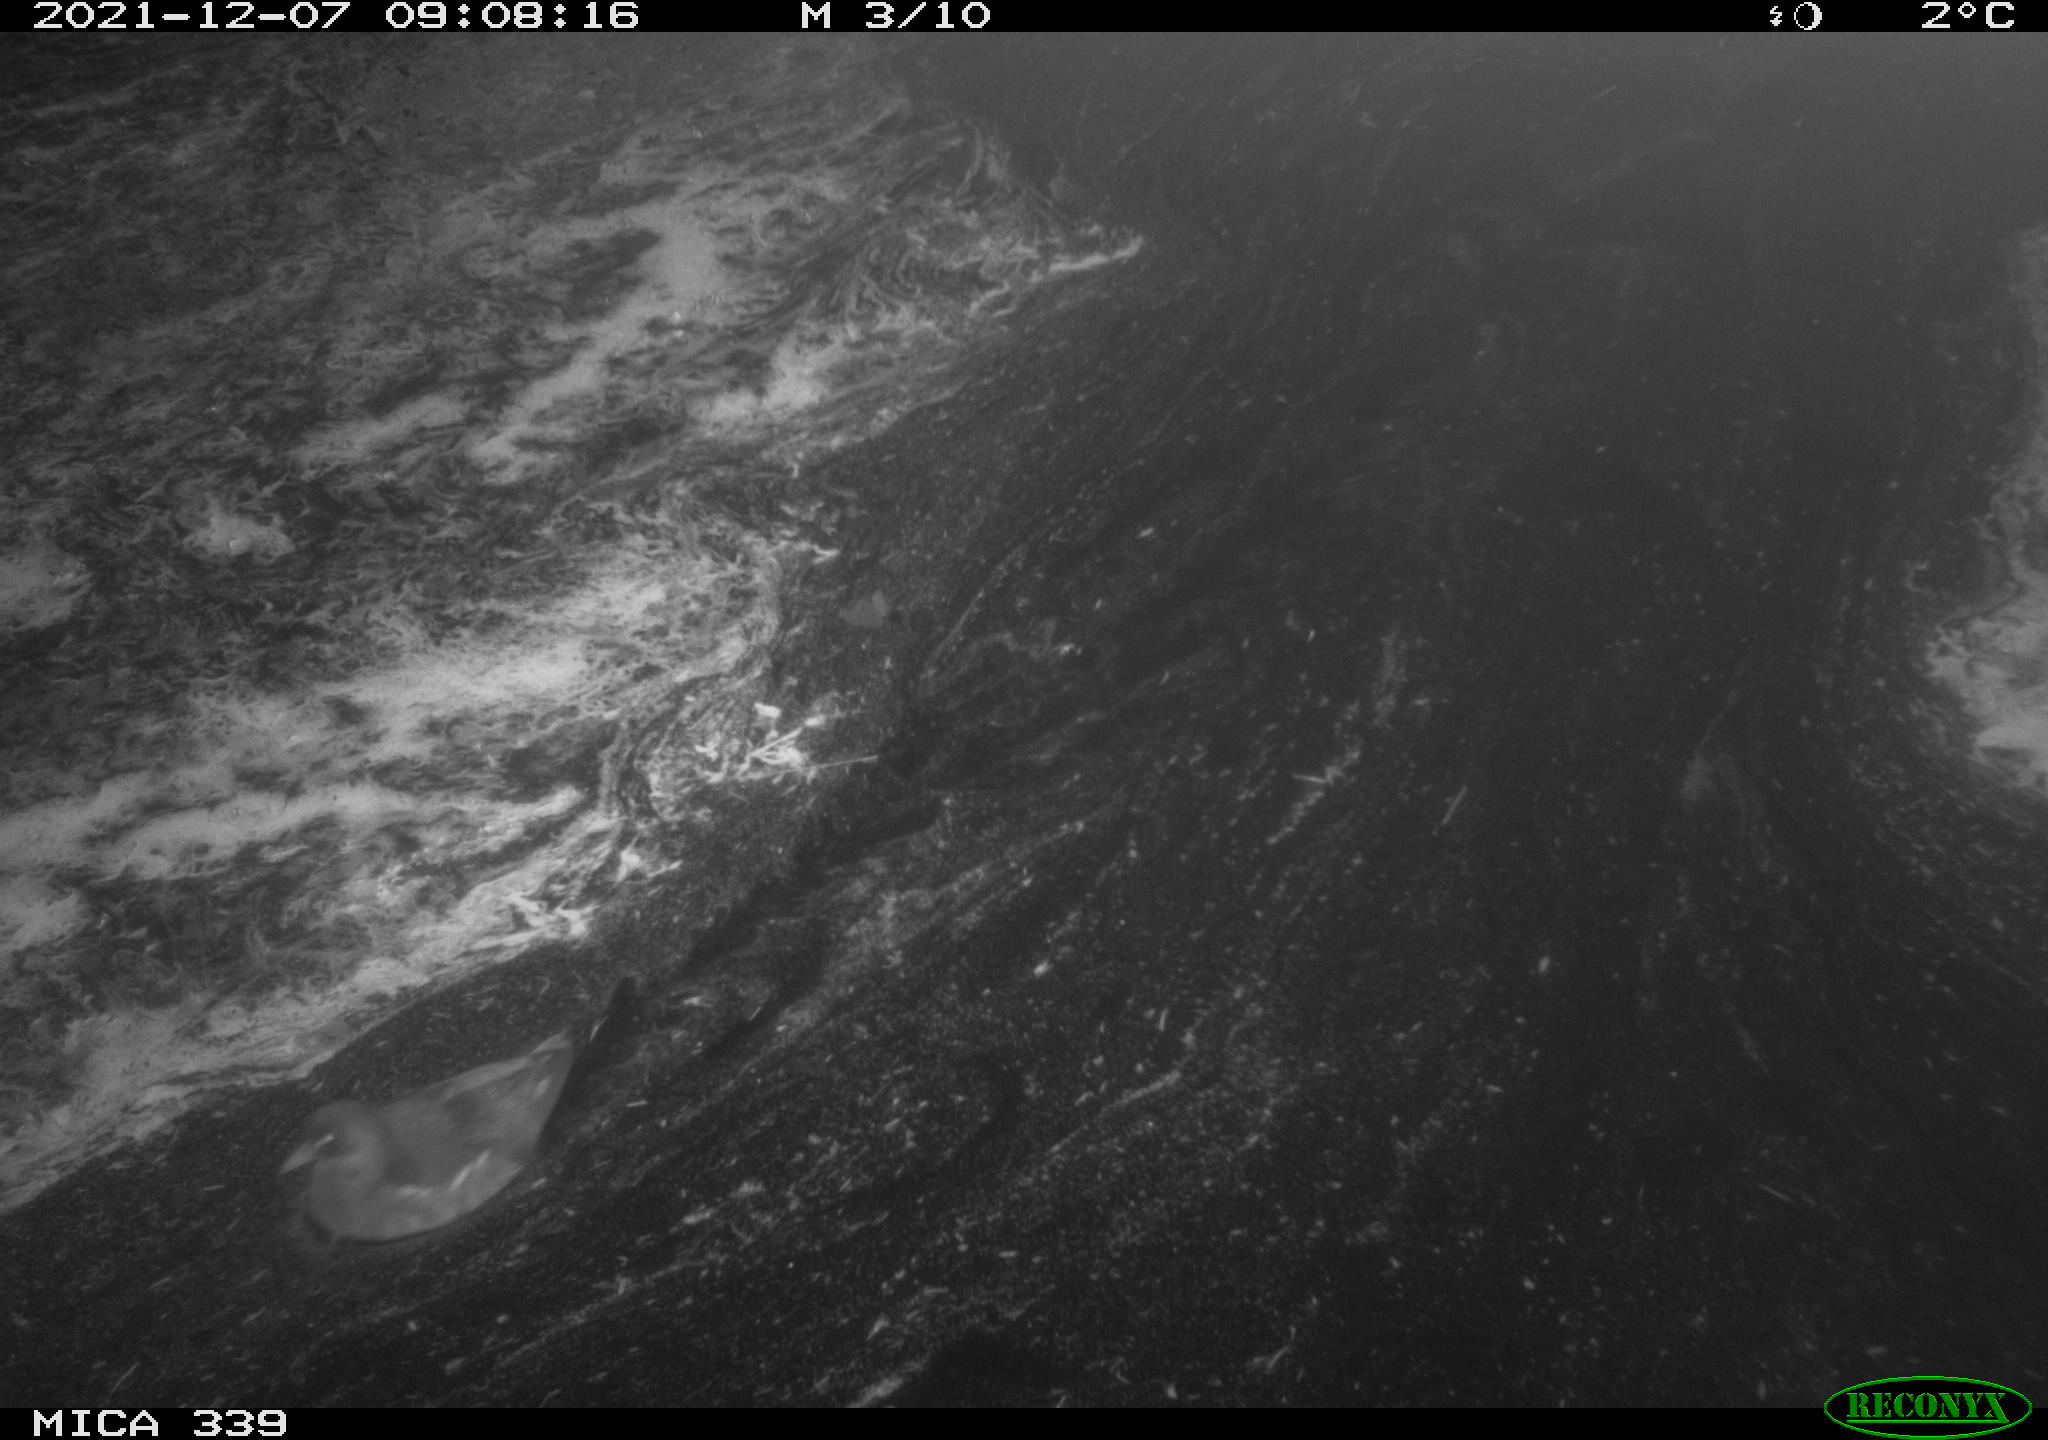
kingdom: Animalia
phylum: Chordata
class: Aves
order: Gruiformes
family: Rallidae
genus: Gallinula
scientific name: Gallinula chloropus
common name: Common moorhen
